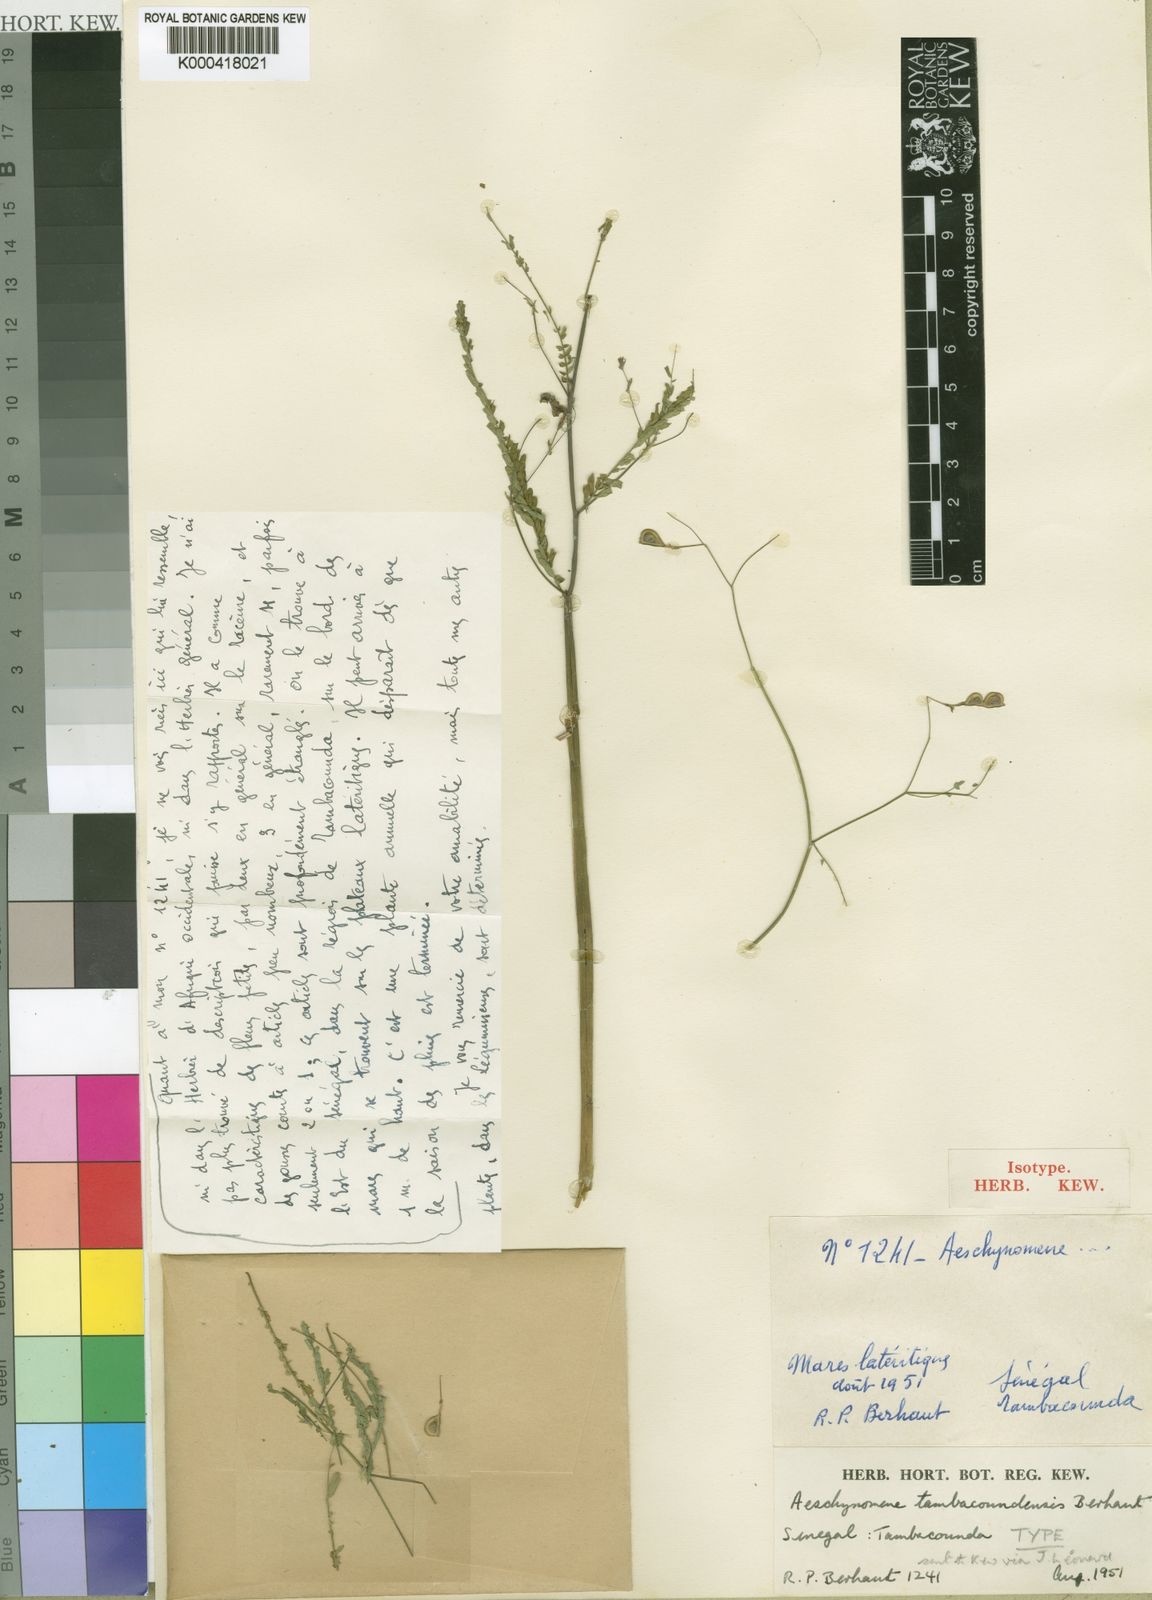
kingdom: Plantae
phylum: Tracheophyta
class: Magnoliopsida
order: Fabales
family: Fabaceae
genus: Aeschynomene
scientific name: Aeschynomene tambacoundensis
